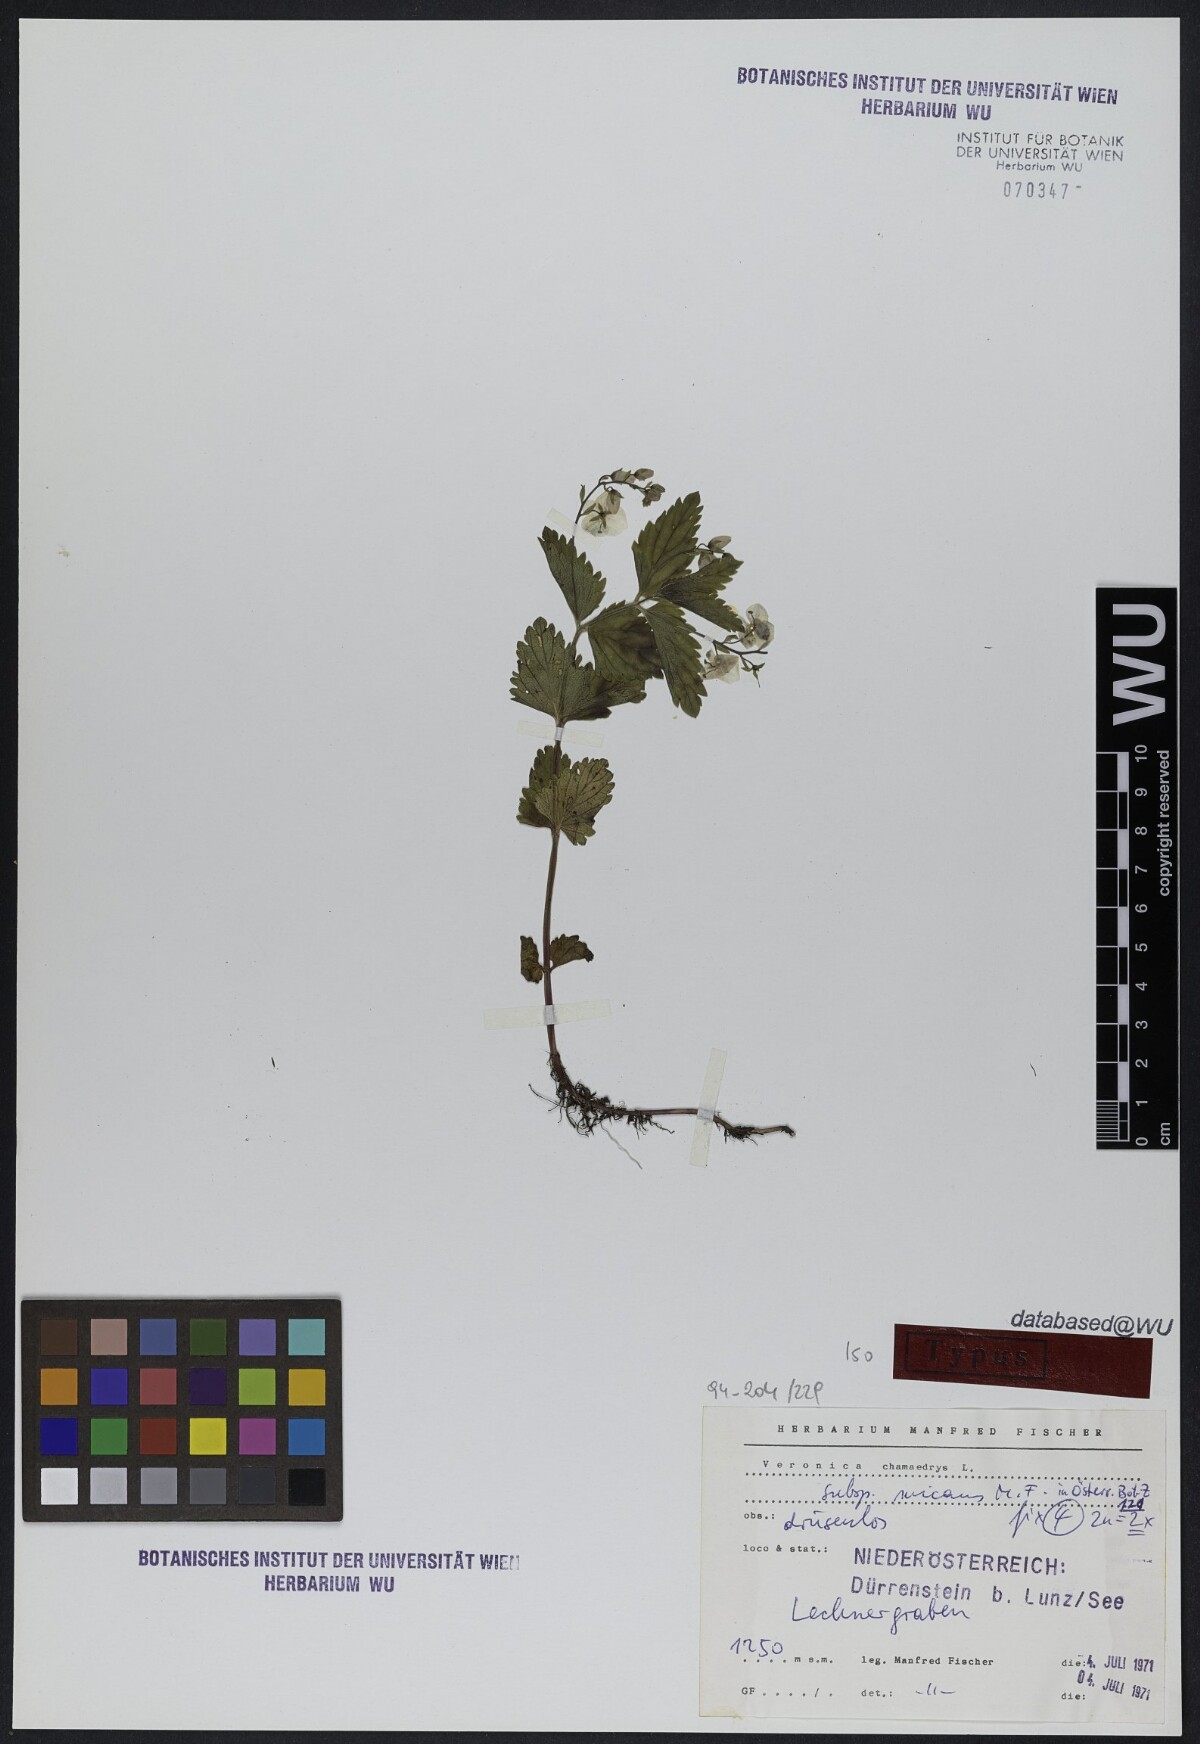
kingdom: Plantae
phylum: Tracheophyta
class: Magnoliopsida
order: Lamiales
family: Plantaginaceae
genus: Veronica
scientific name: Veronica chamaedrys
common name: Germander speedwell
